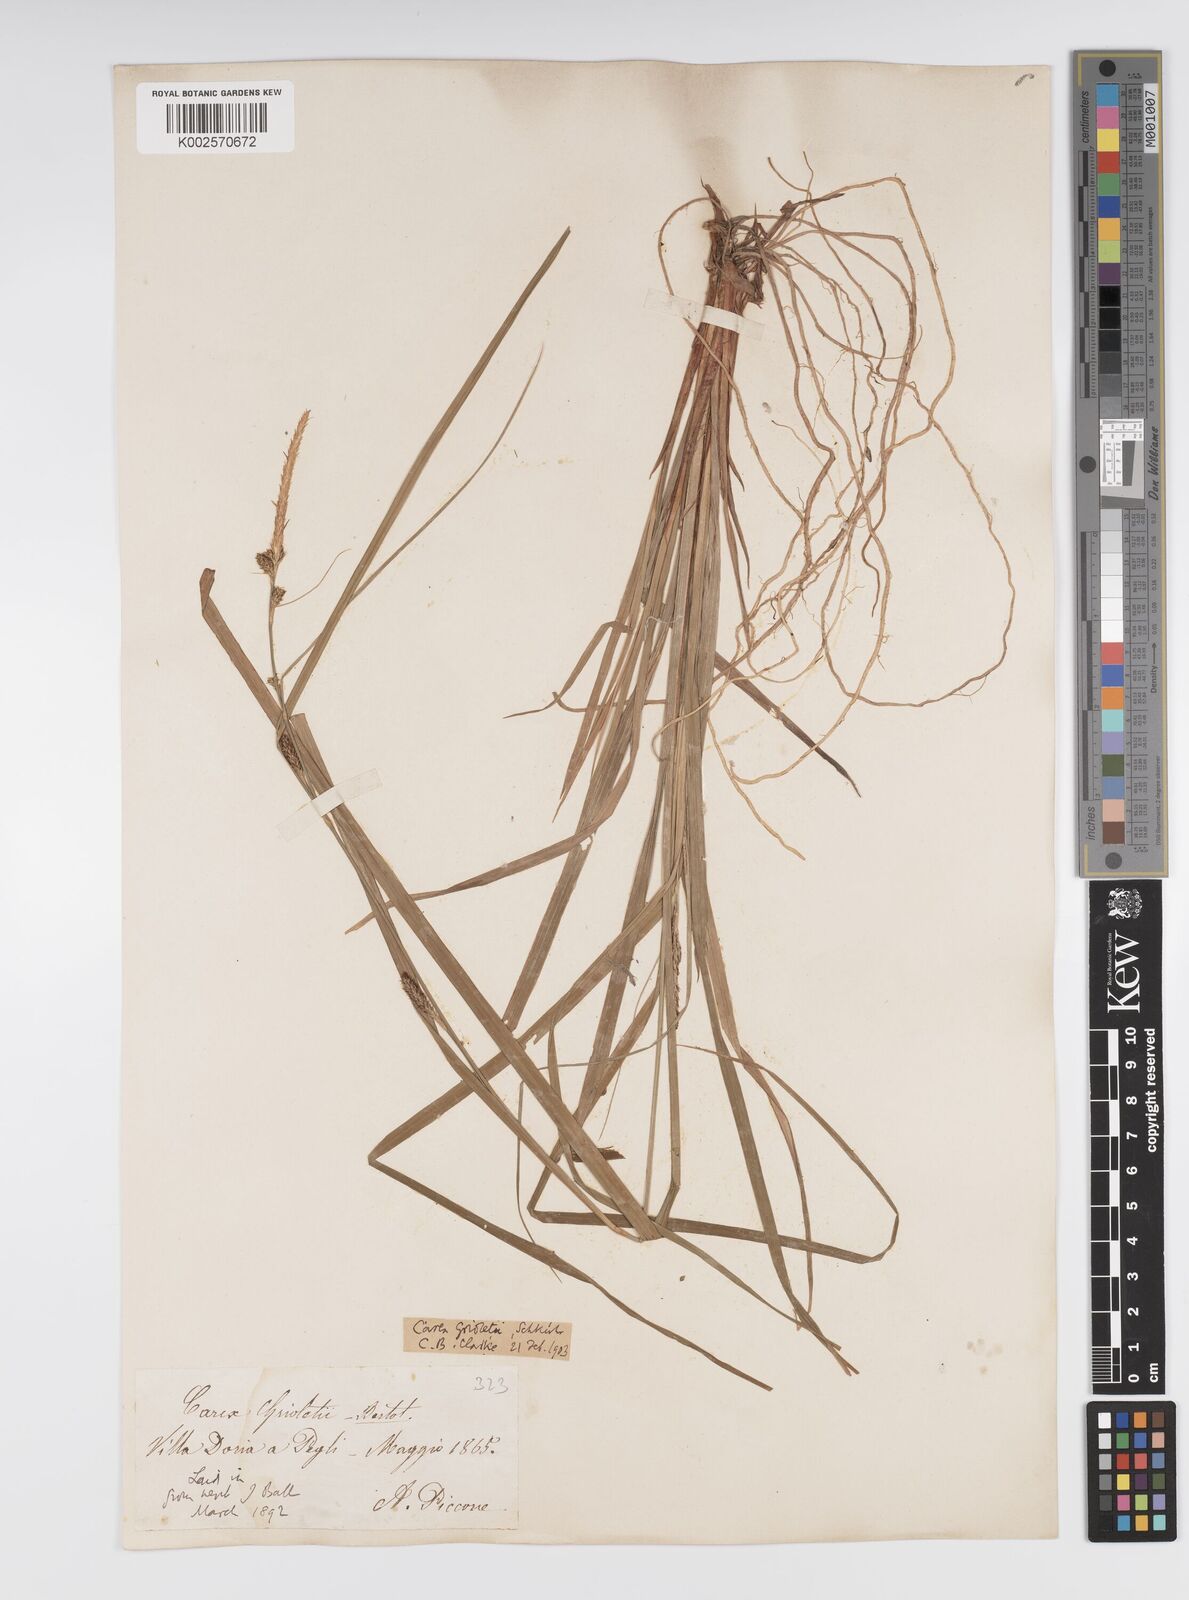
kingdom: Plantae
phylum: Tracheophyta
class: Liliopsida
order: Poales
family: Cyperaceae
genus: Carex
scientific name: Carex grioletii
